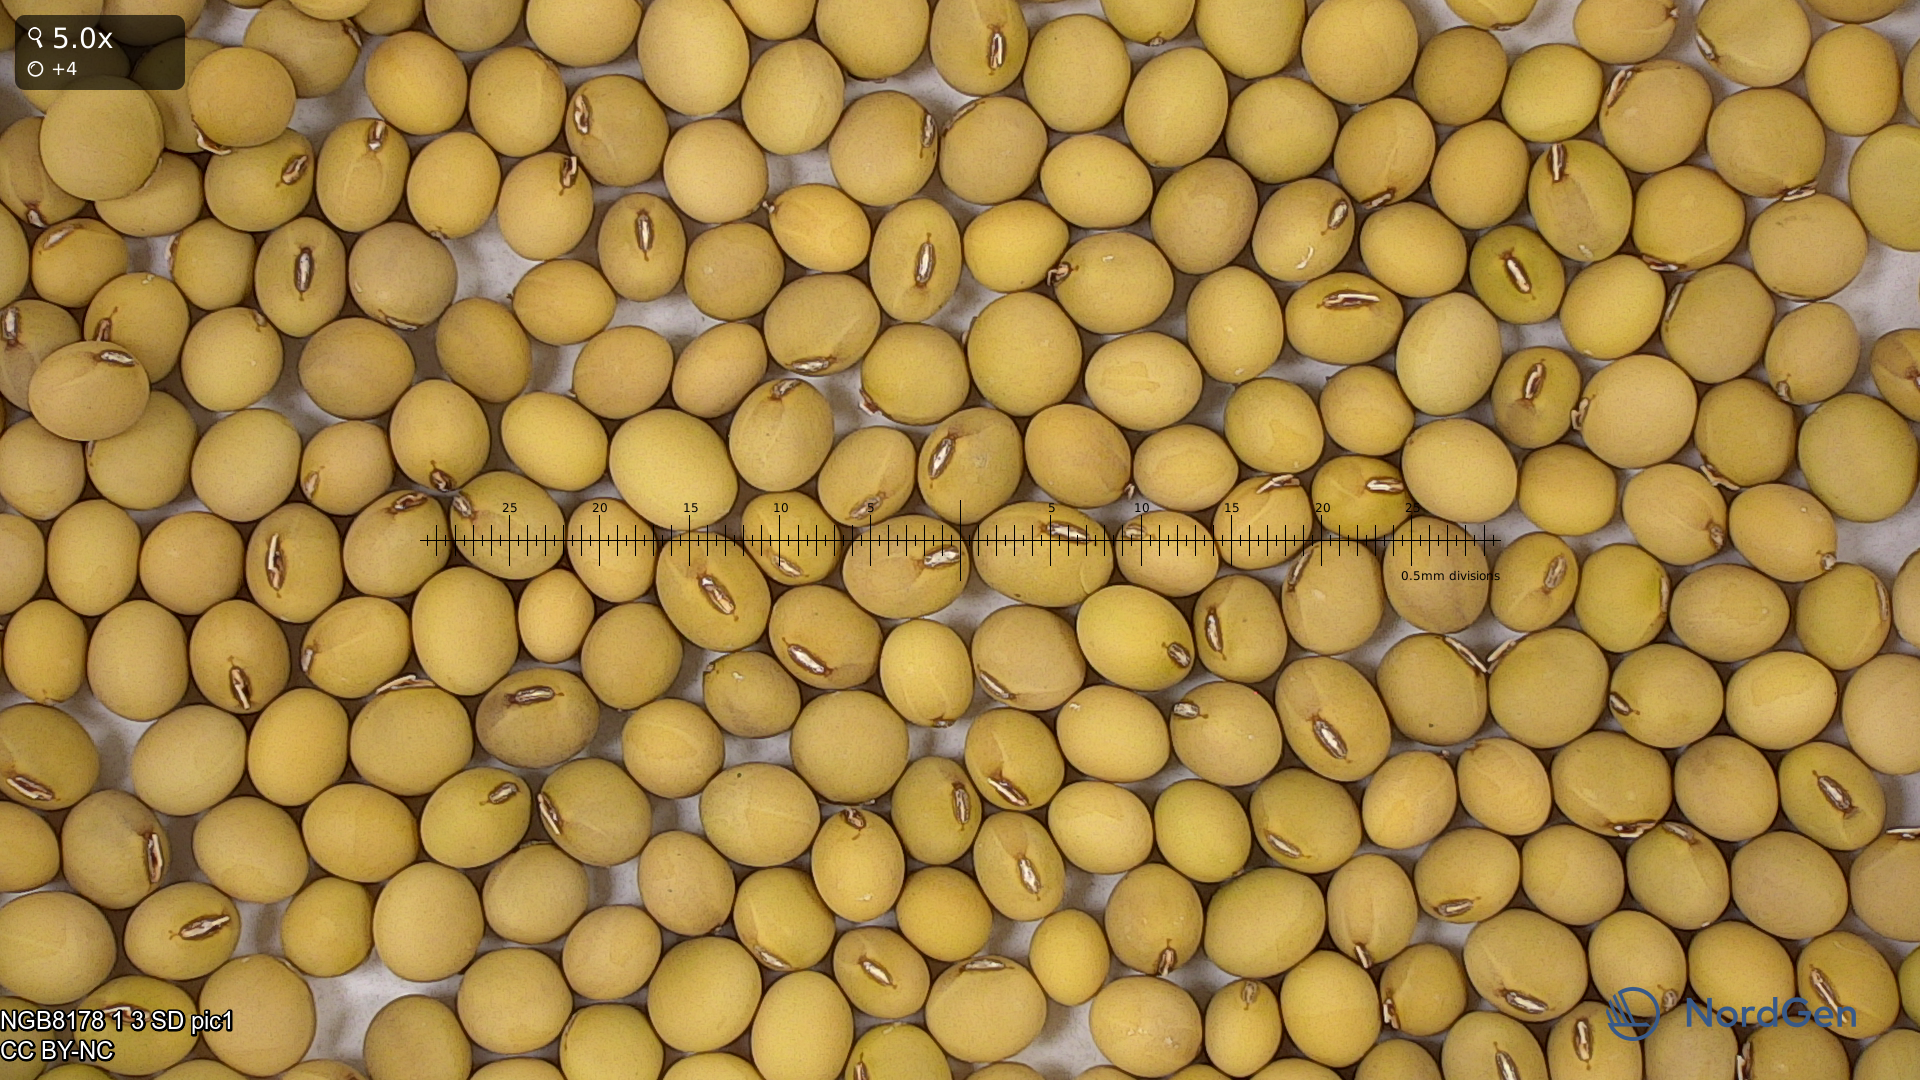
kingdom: Plantae
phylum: Tracheophyta
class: Magnoliopsida
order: Fabales
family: Fabaceae
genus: Glycine
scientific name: Glycine max
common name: Soya-bean
